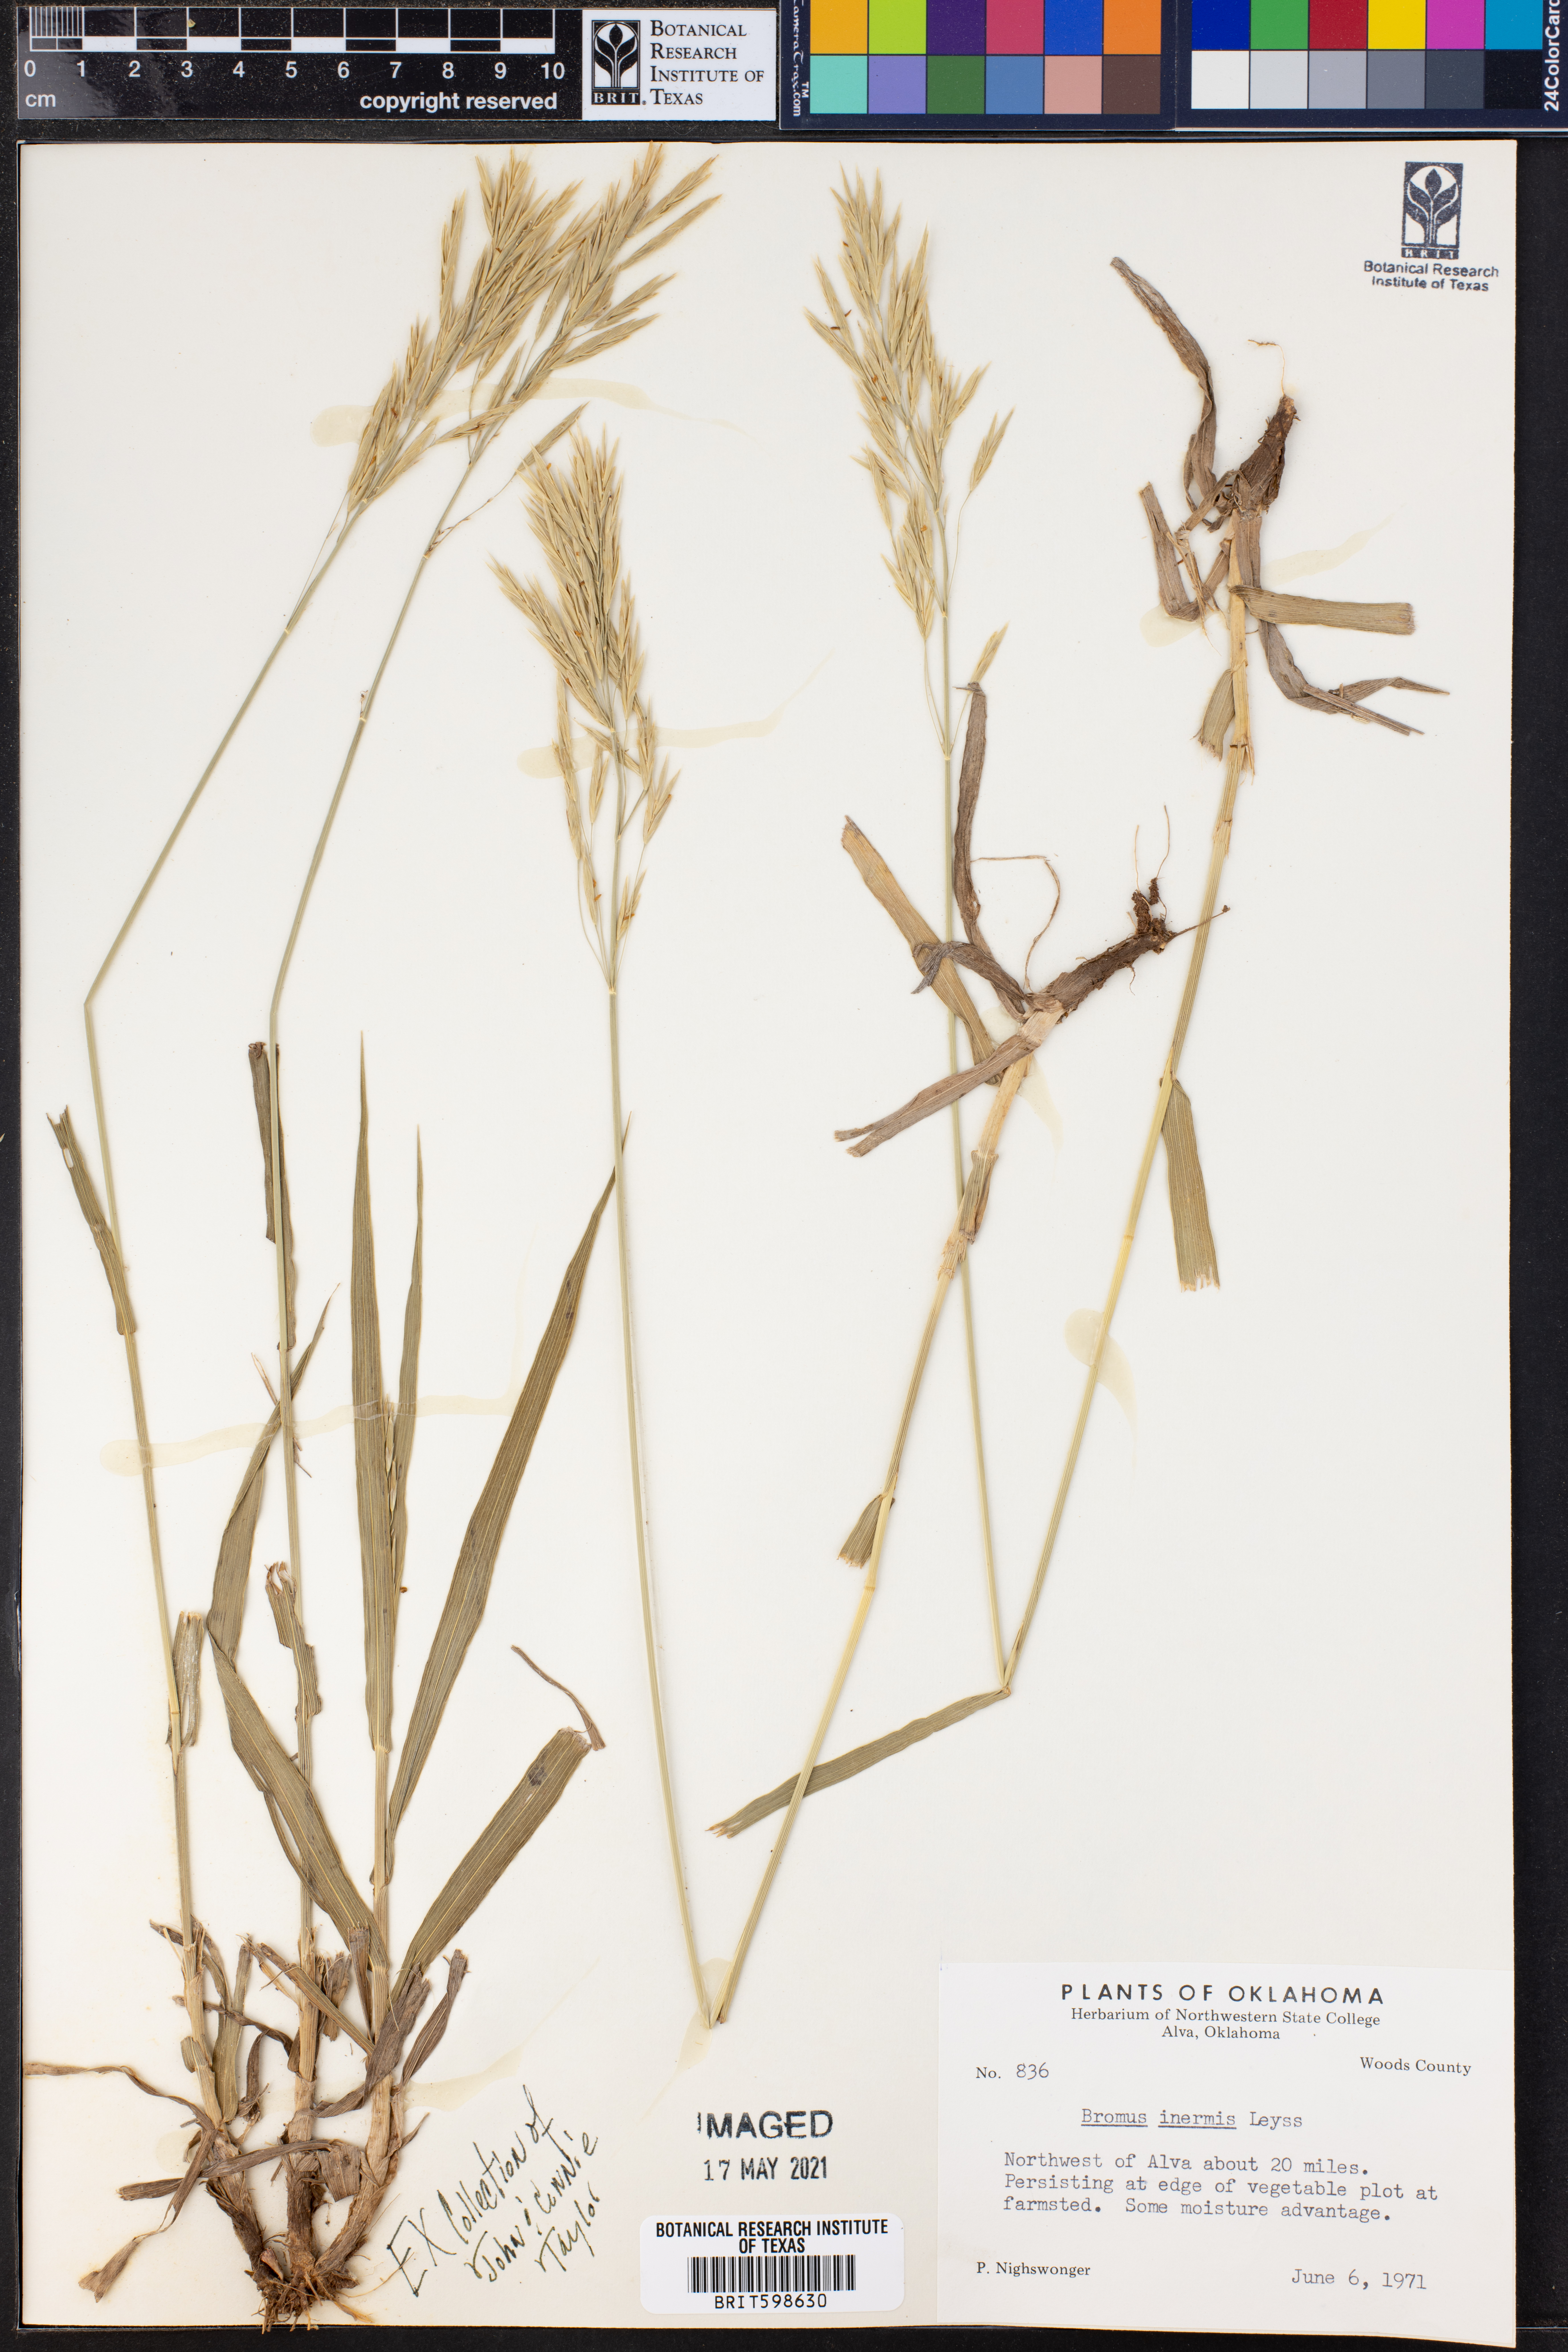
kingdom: Plantae
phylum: Tracheophyta
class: Liliopsida
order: Poales
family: Poaceae
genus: Bromus
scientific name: Bromus inermis
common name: Smooth brome
